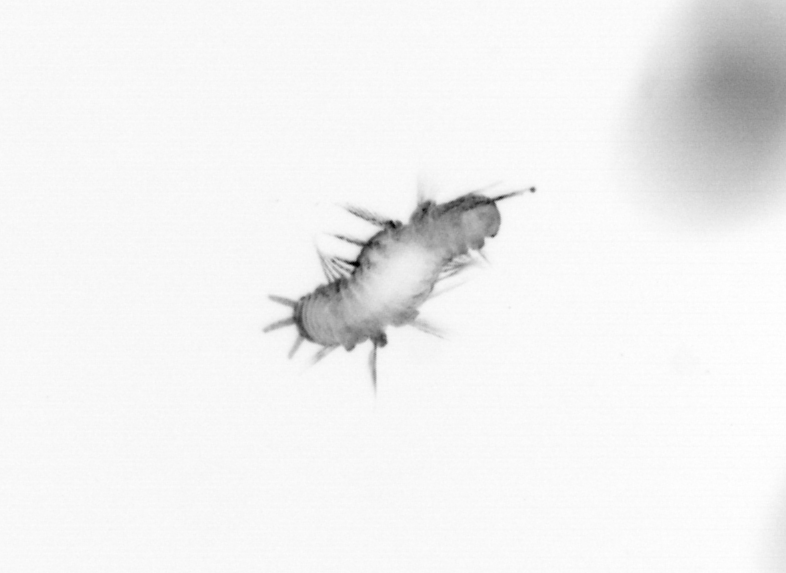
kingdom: Animalia
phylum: Annelida
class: Polychaeta
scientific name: Polychaeta
